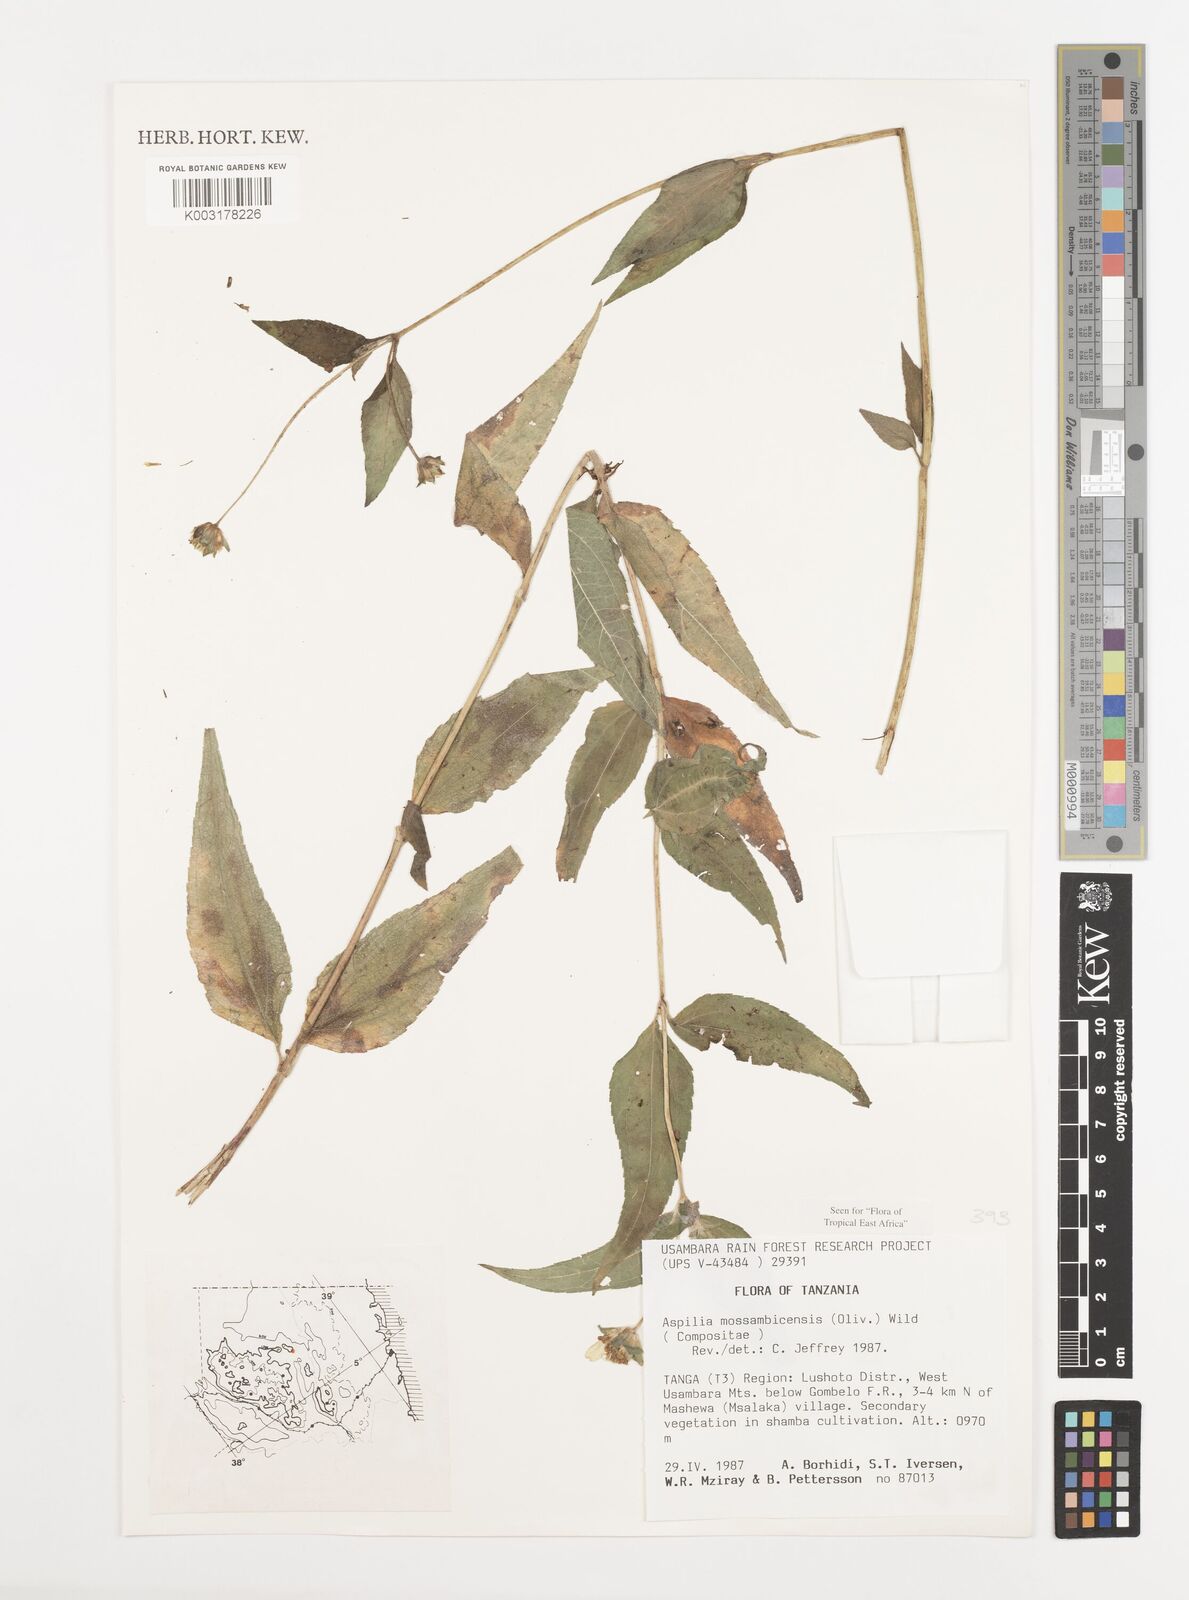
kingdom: Plantae
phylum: Tracheophyta
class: Magnoliopsida
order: Asterales
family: Asteraceae
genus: Aspilia
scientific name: Aspilia mossambicensis
